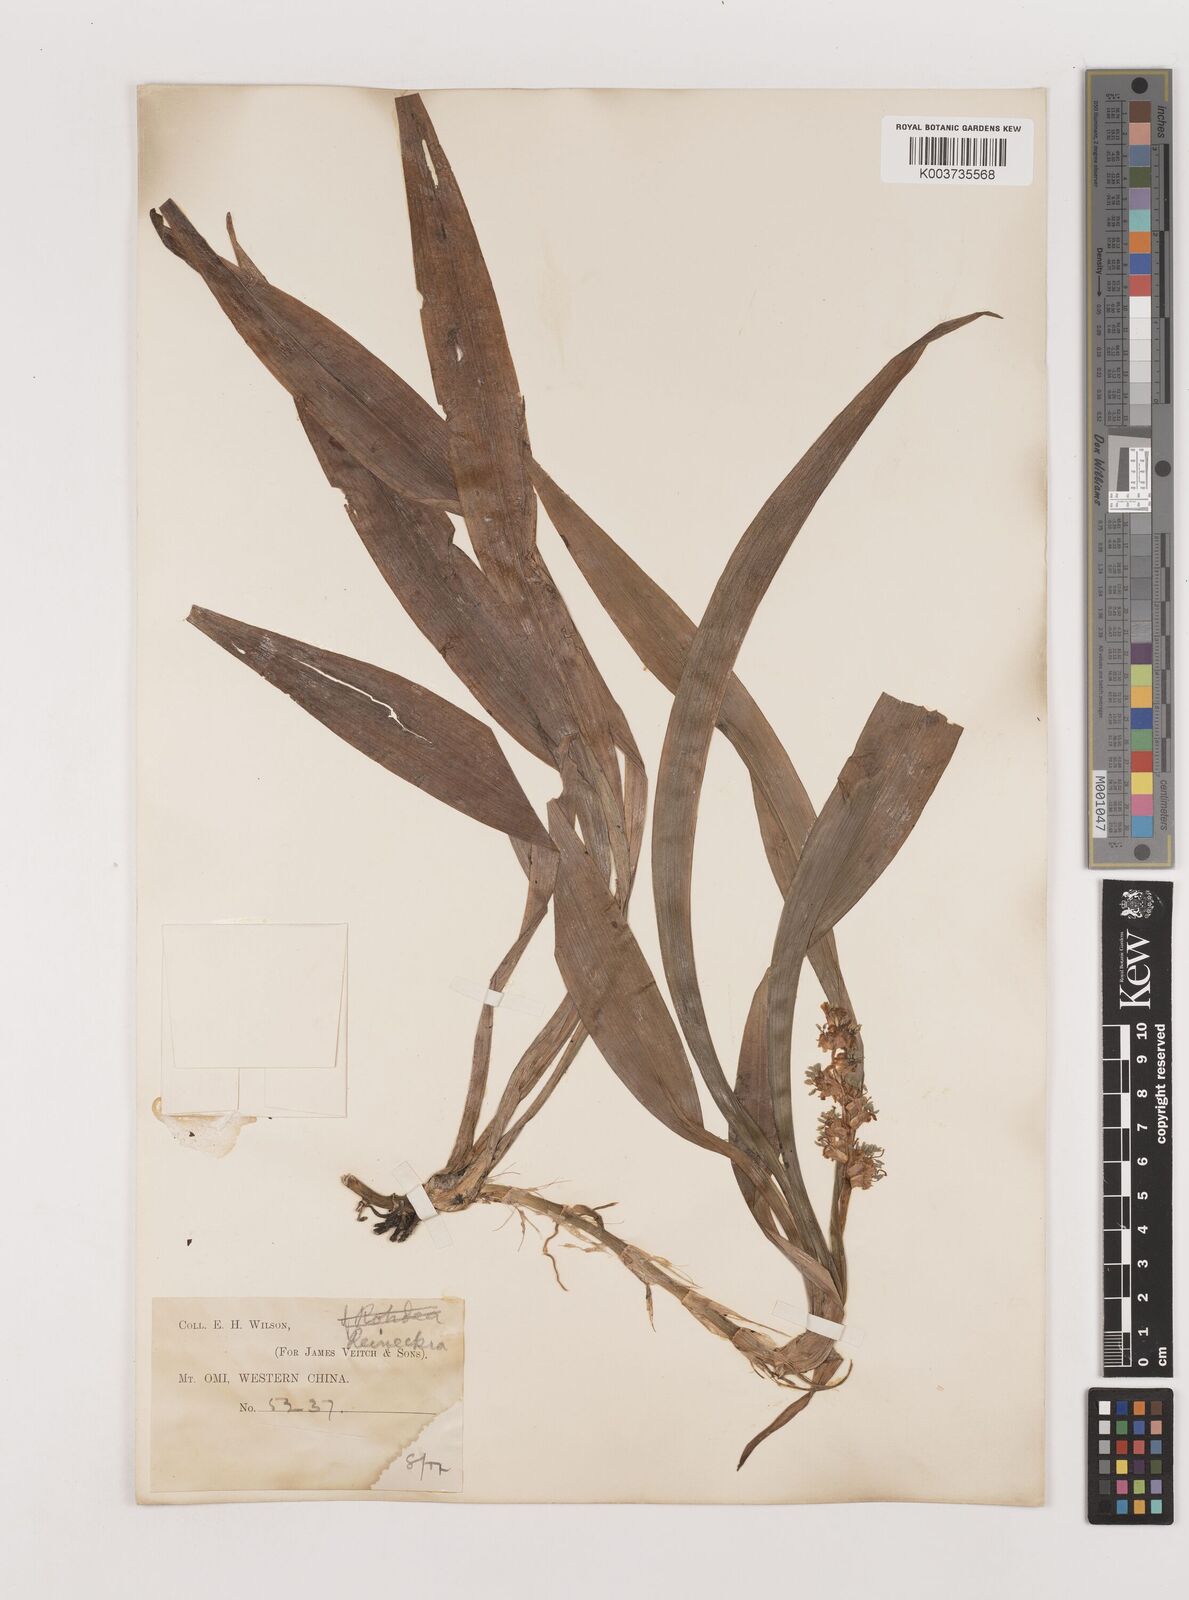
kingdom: Plantae
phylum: Tracheophyta
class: Liliopsida
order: Asparagales
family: Asparagaceae
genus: Reineckea
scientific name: Reineckea carnea
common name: Reineckea
